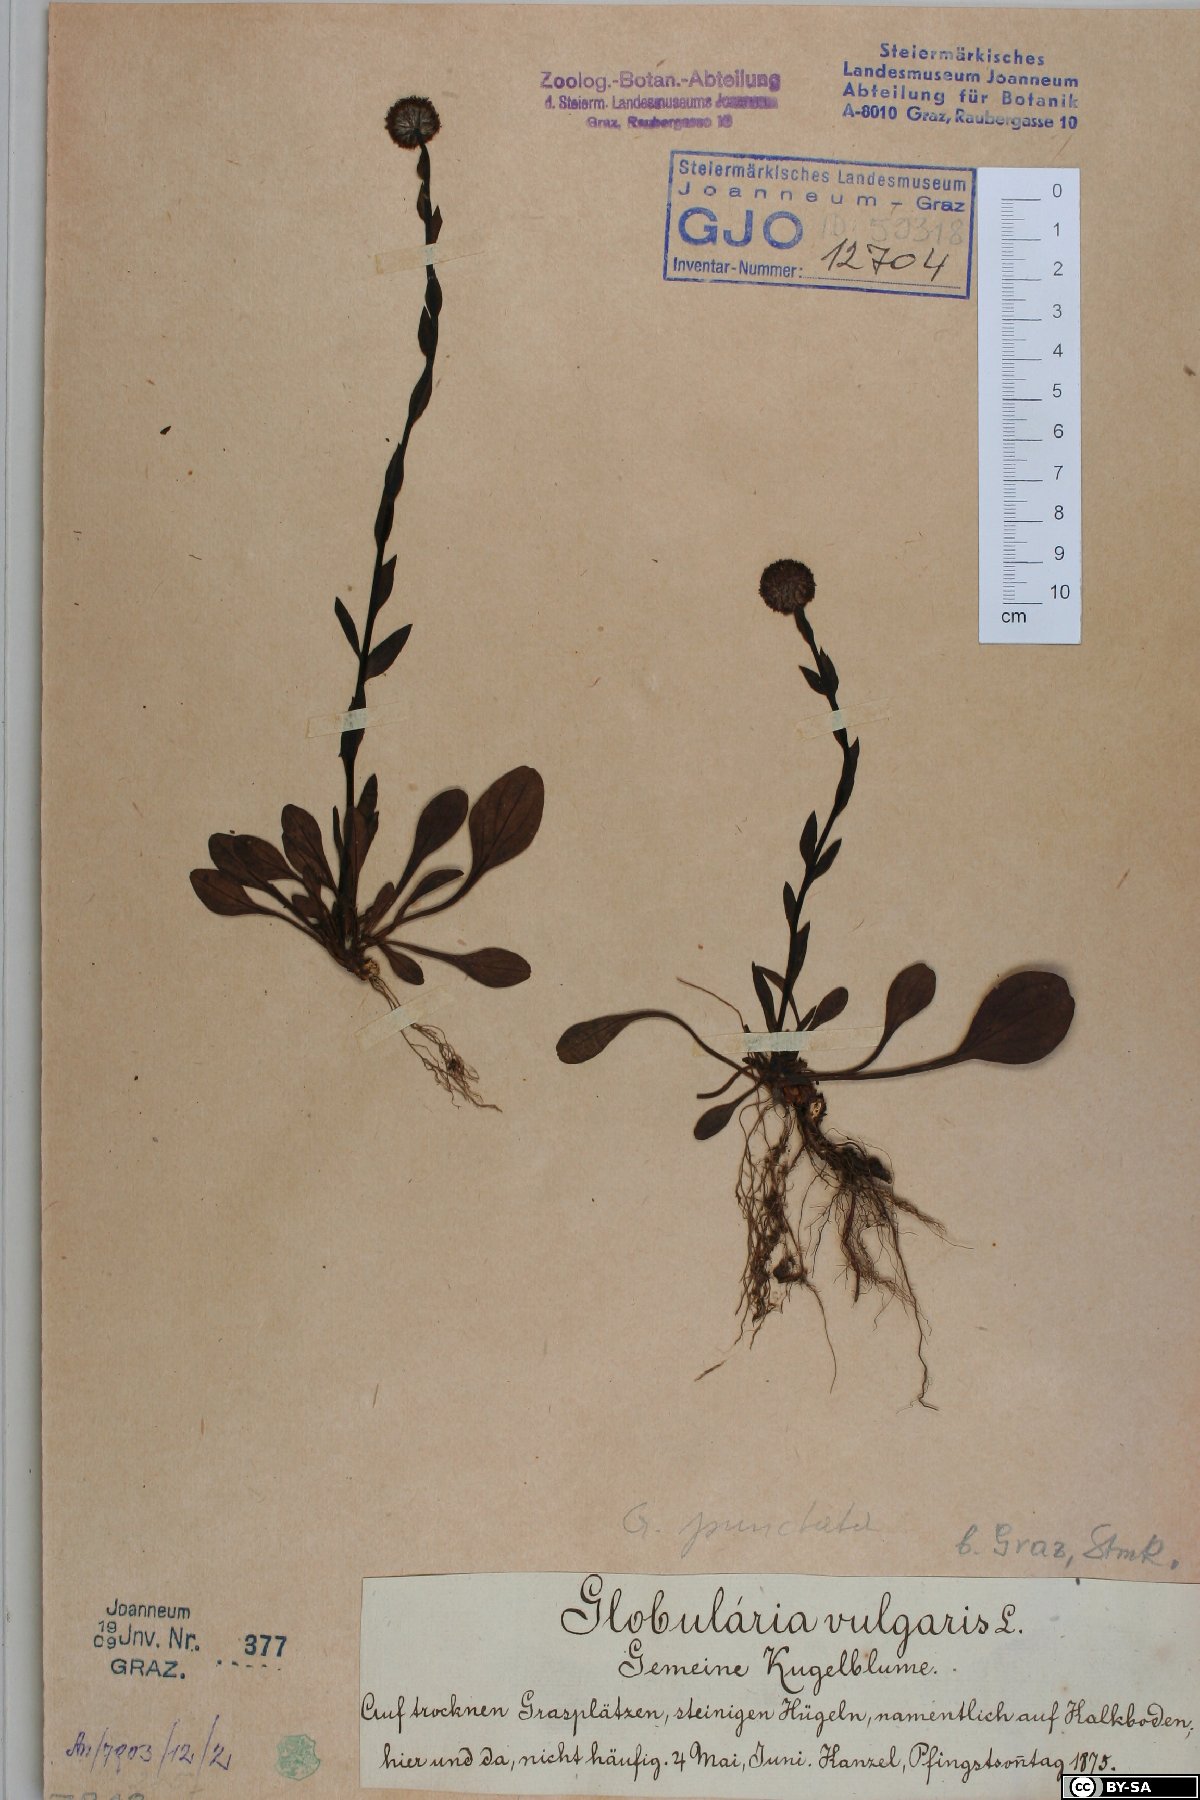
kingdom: Plantae
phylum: Tracheophyta
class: Magnoliopsida
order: Lamiales
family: Plantaginaceae
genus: Globularia
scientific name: Globularia bisnagarica
